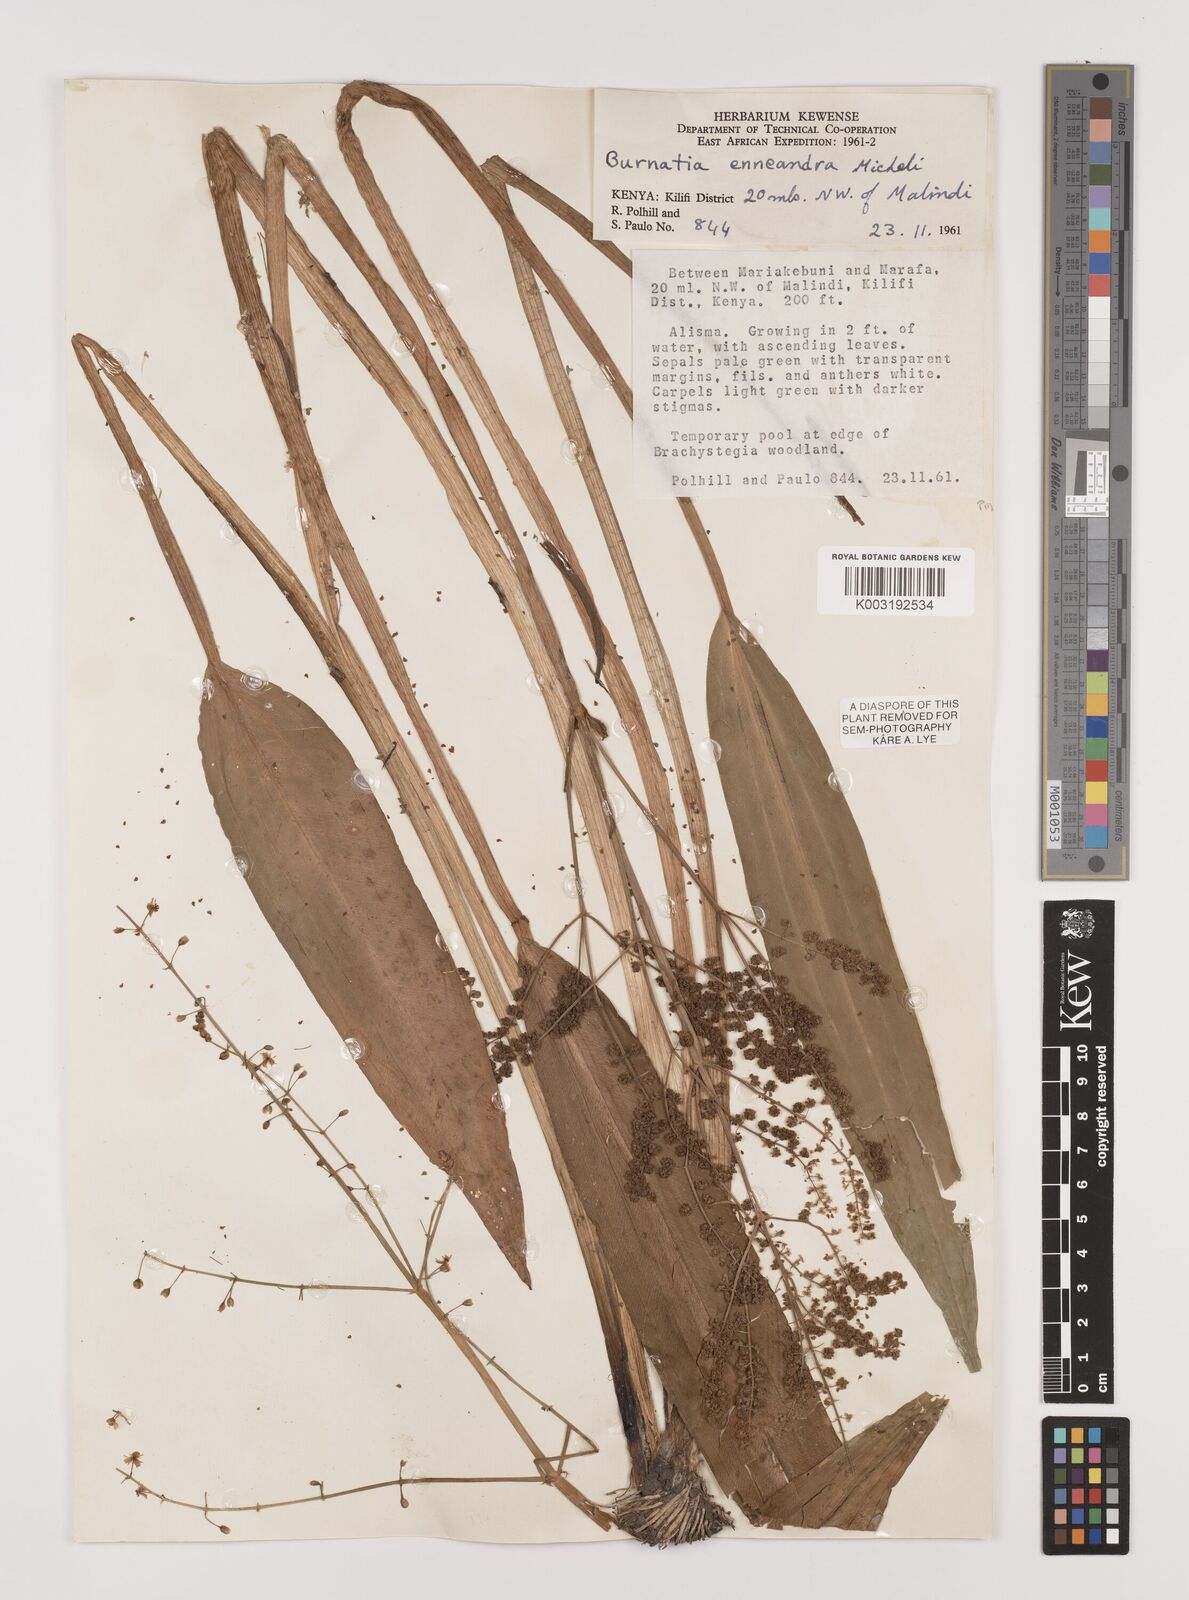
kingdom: Plantae
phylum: Tracheophyta
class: Liliopsida
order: Alismatales
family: Alismataceae
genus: Burnatia
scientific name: Burnatia enneandra
